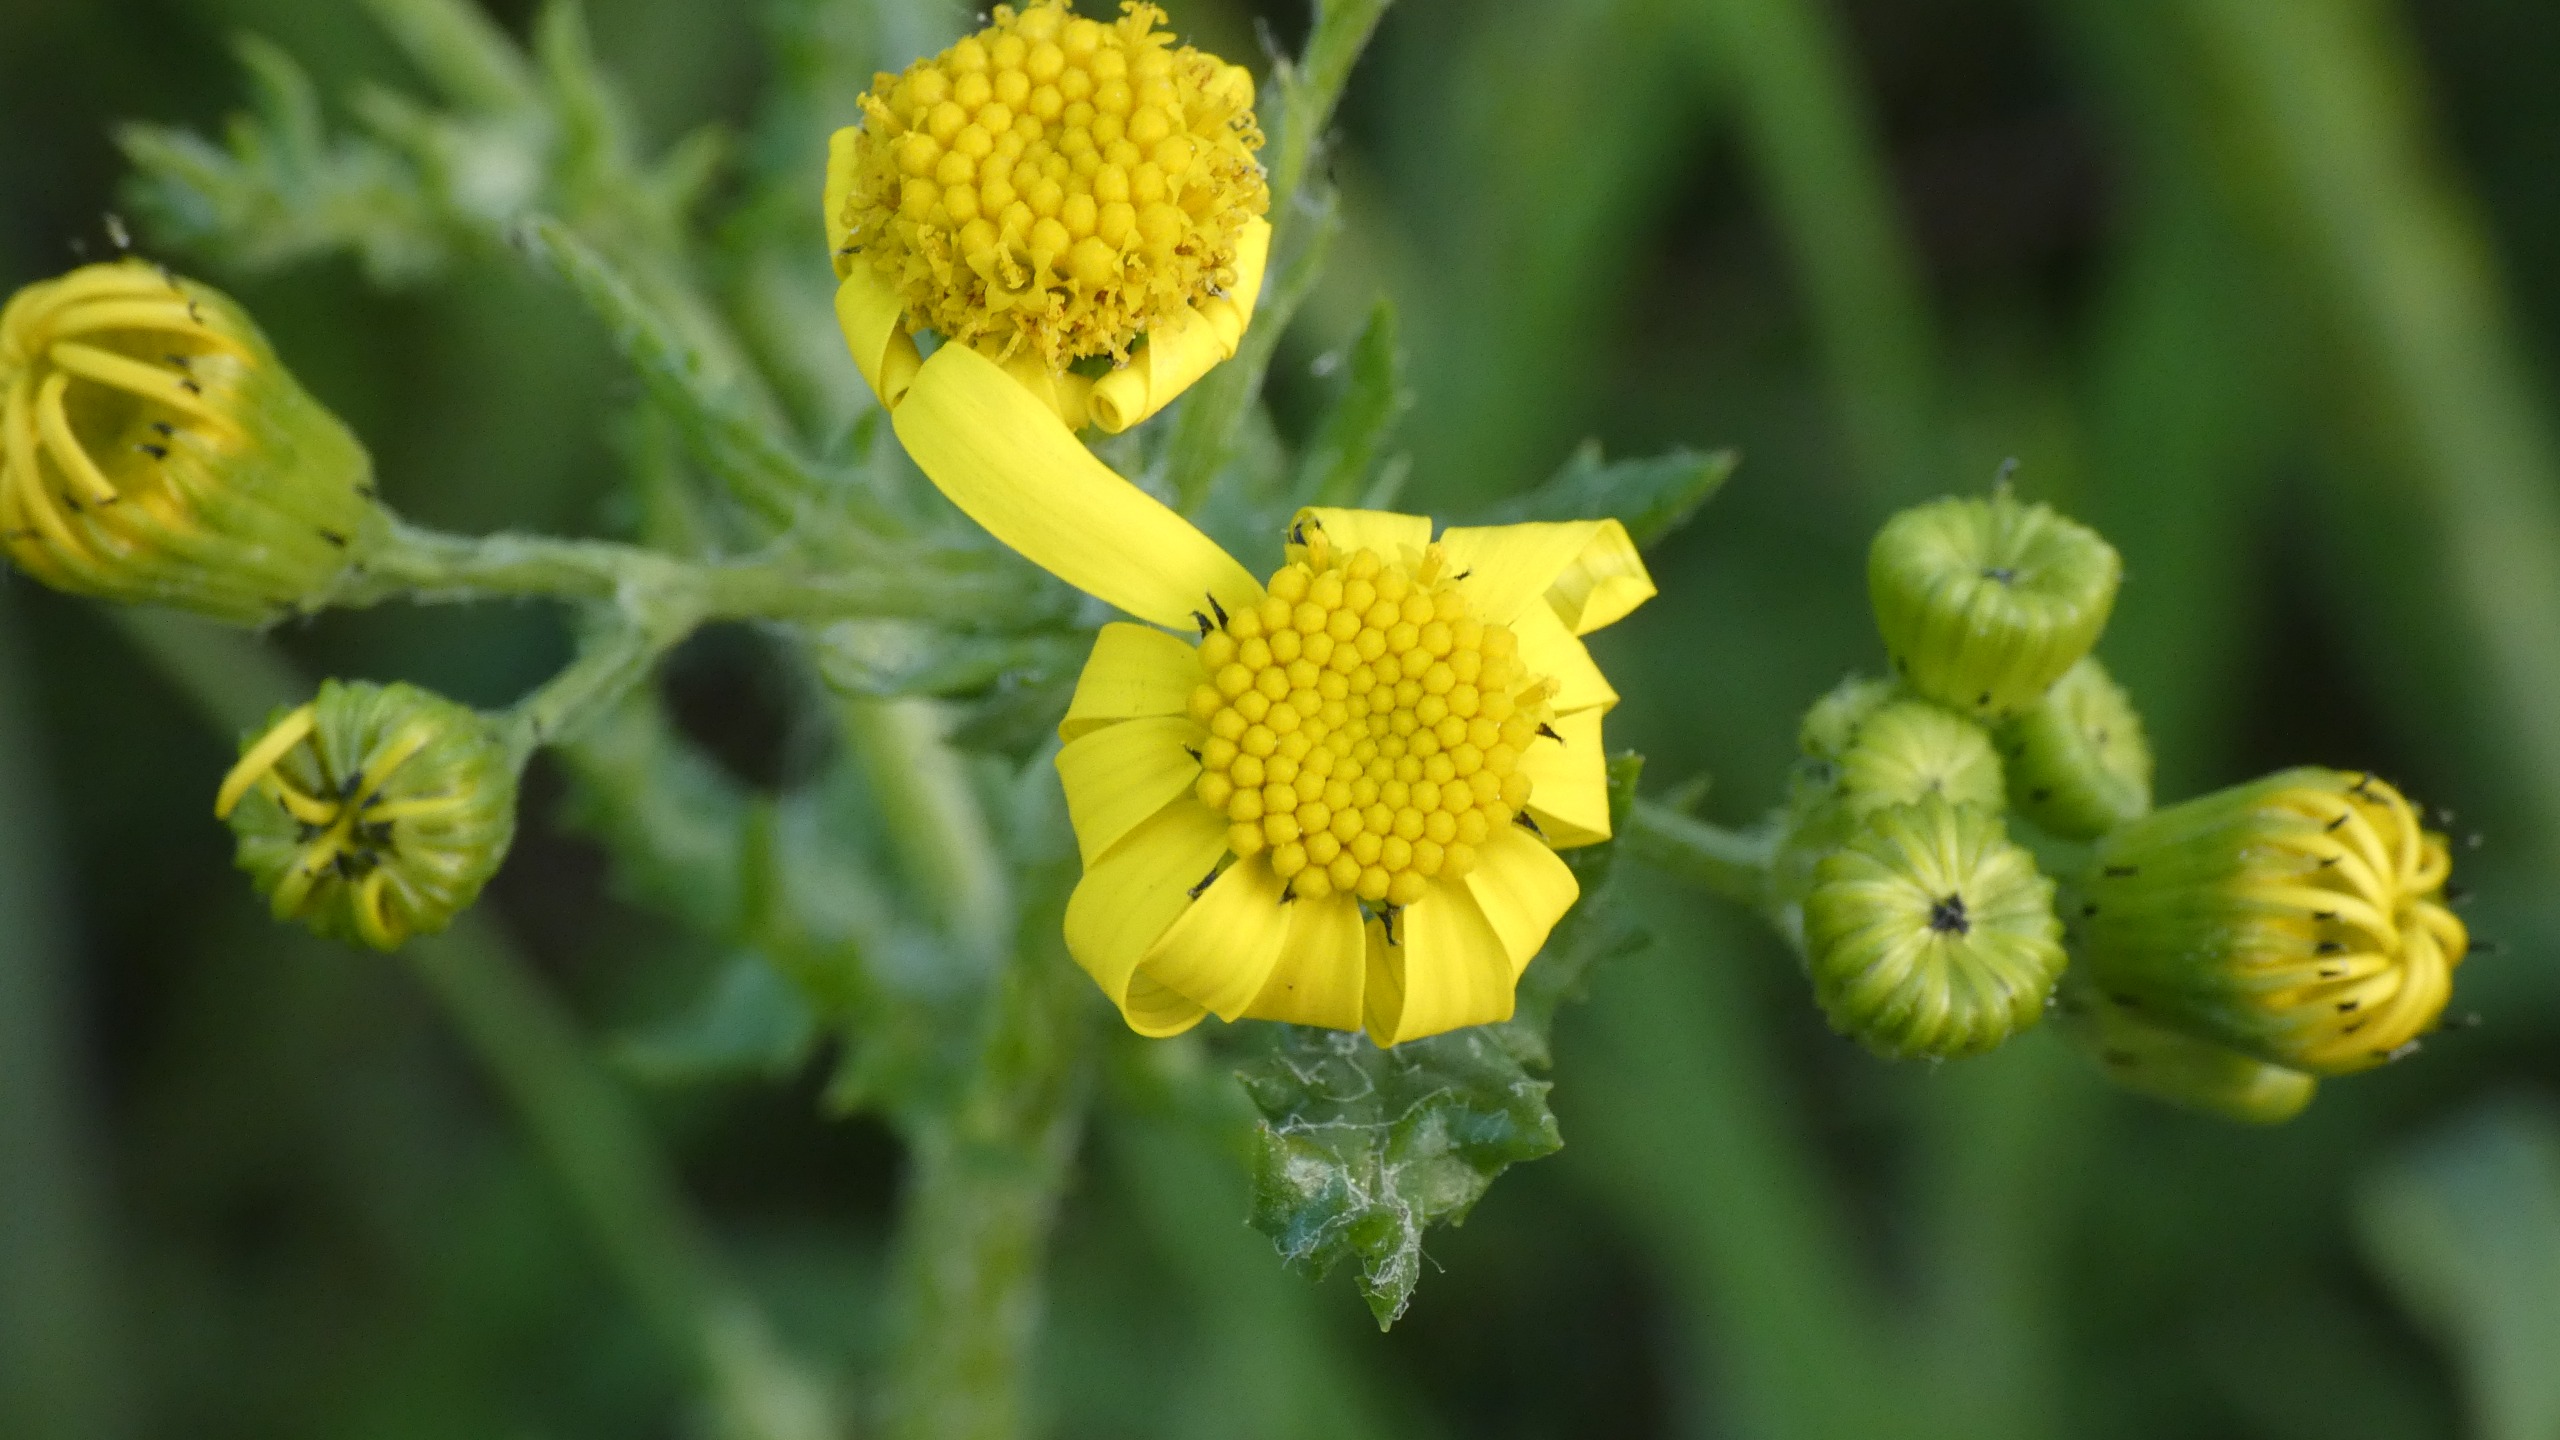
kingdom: Plantae
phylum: Tracheophyta
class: Magnoliopsida
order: Asterales
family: Asteraceae
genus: Jacobaea
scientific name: Jacobaea vulgaris
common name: Eng-brandbæger
